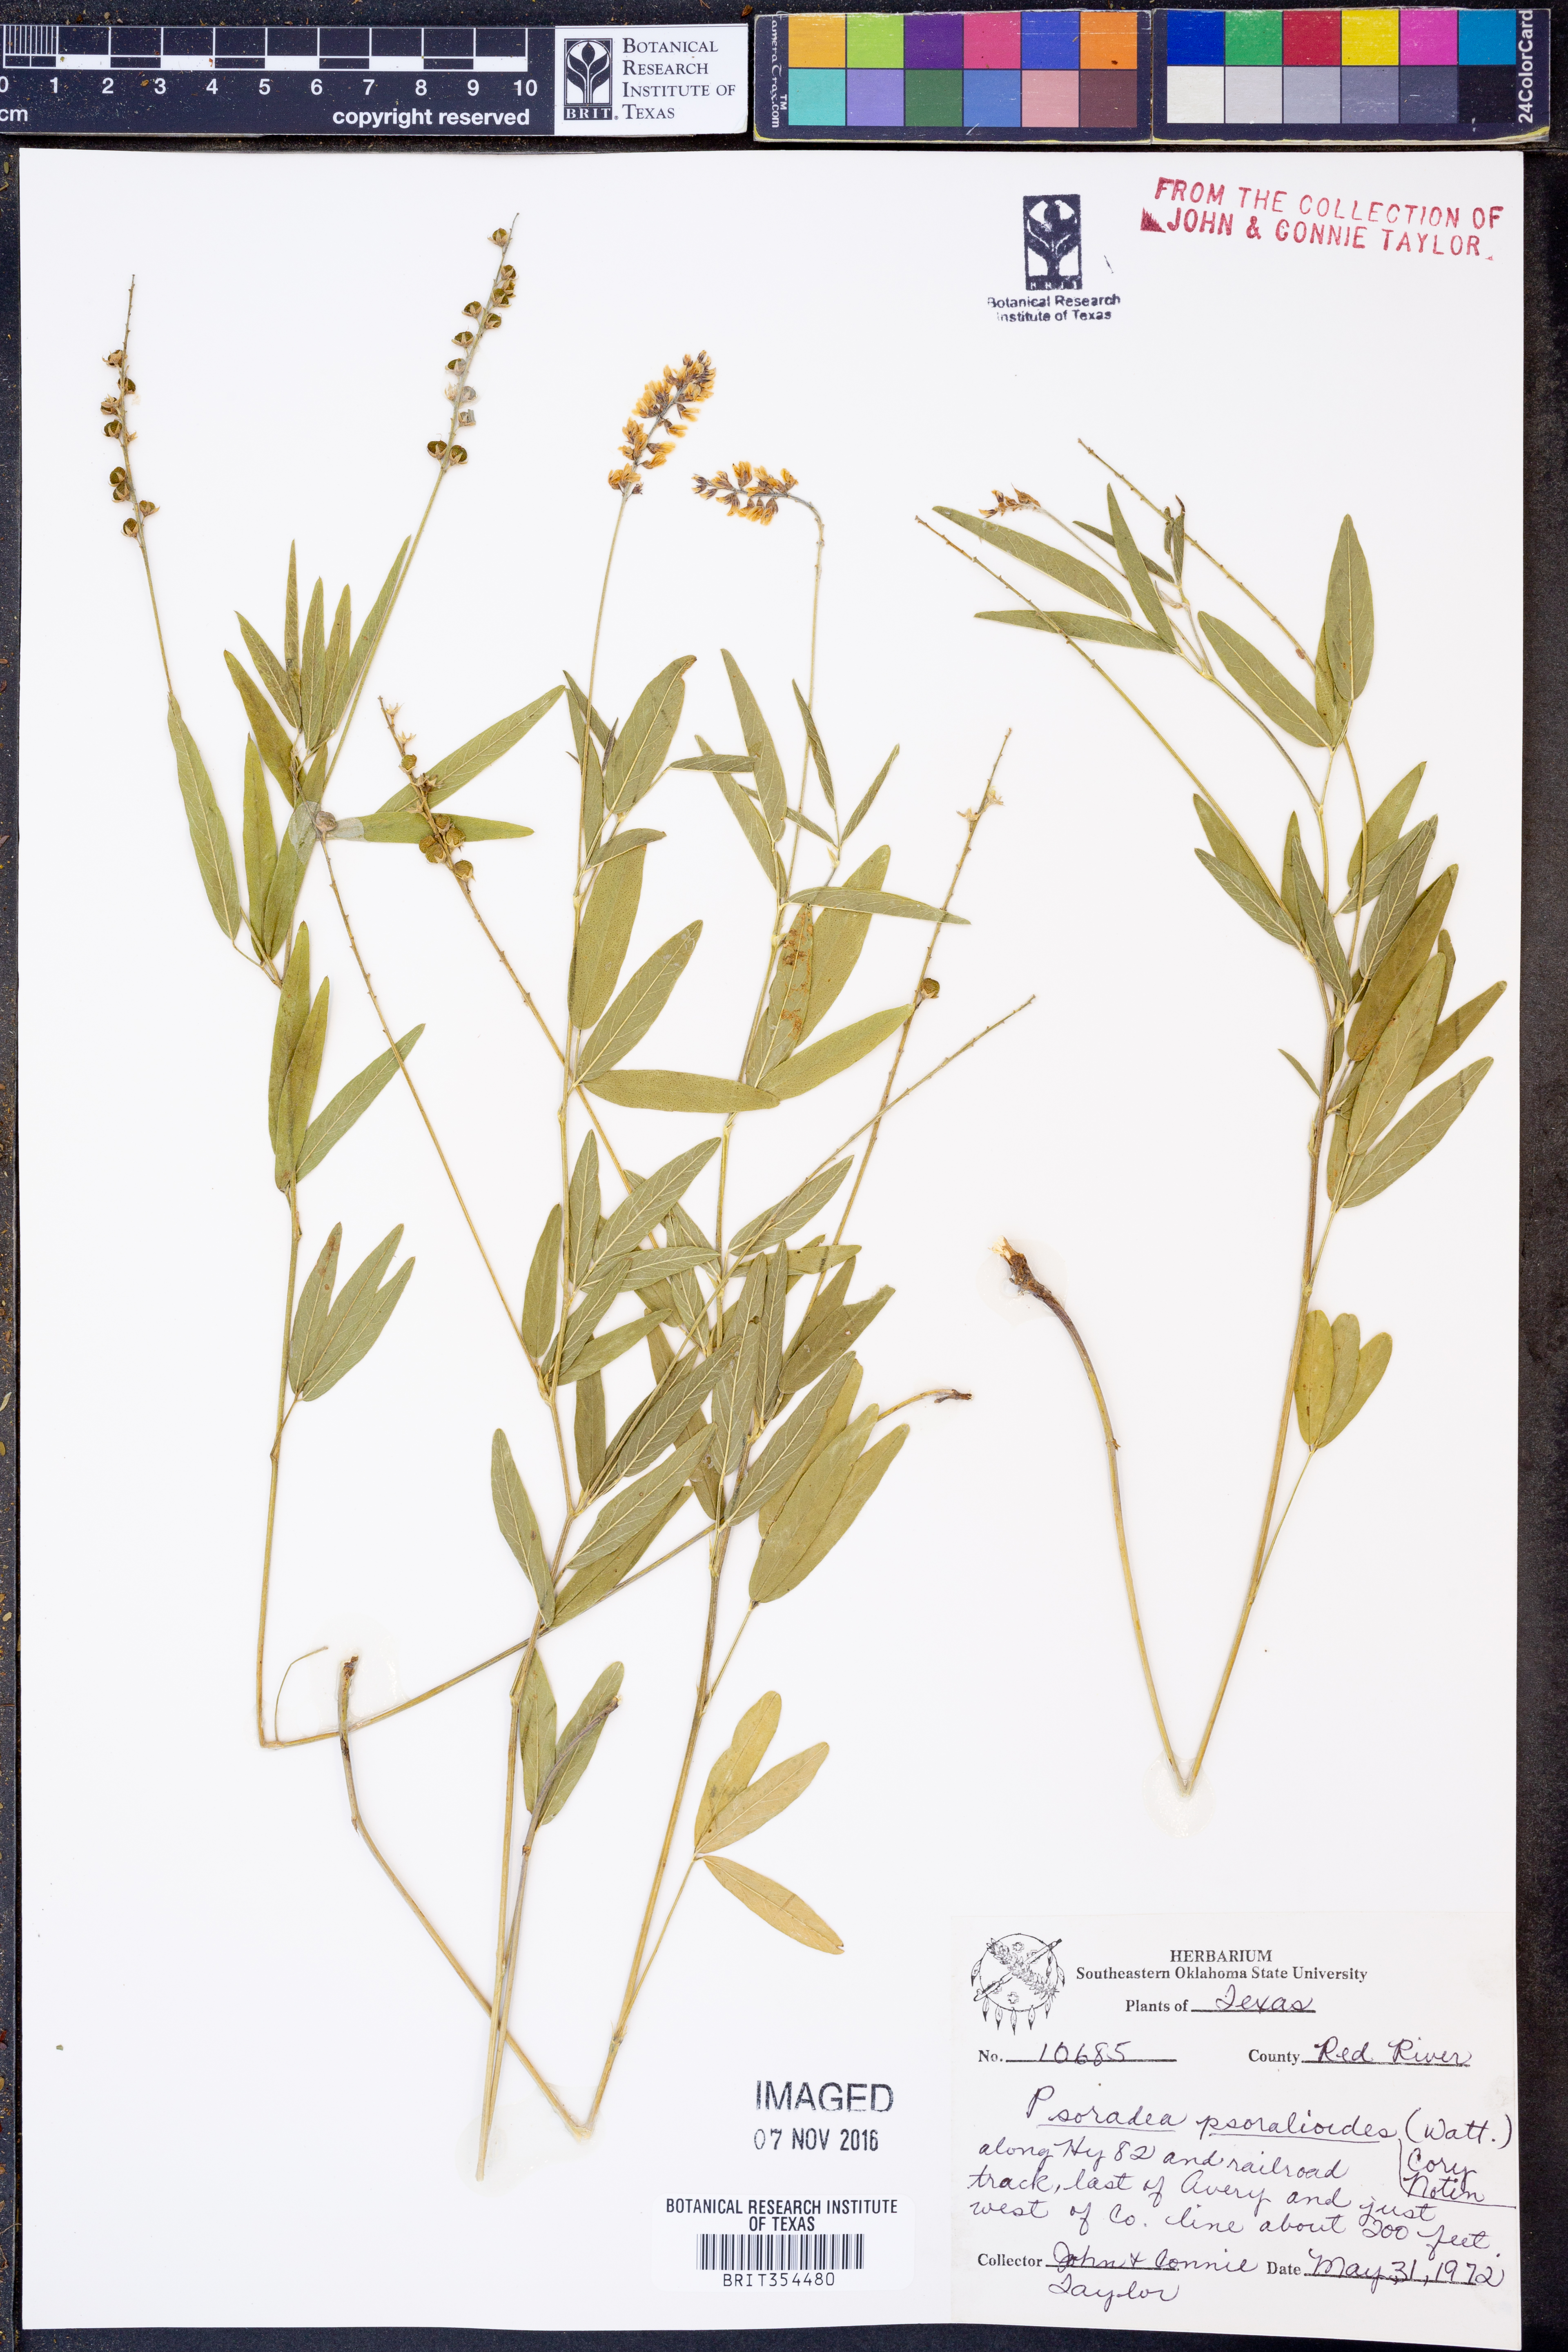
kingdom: Plantae
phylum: Tracheophyta
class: Magnoliopsida
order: Fabales
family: Fabaceae
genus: Orbexilum
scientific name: Orbexilum psoralioides
